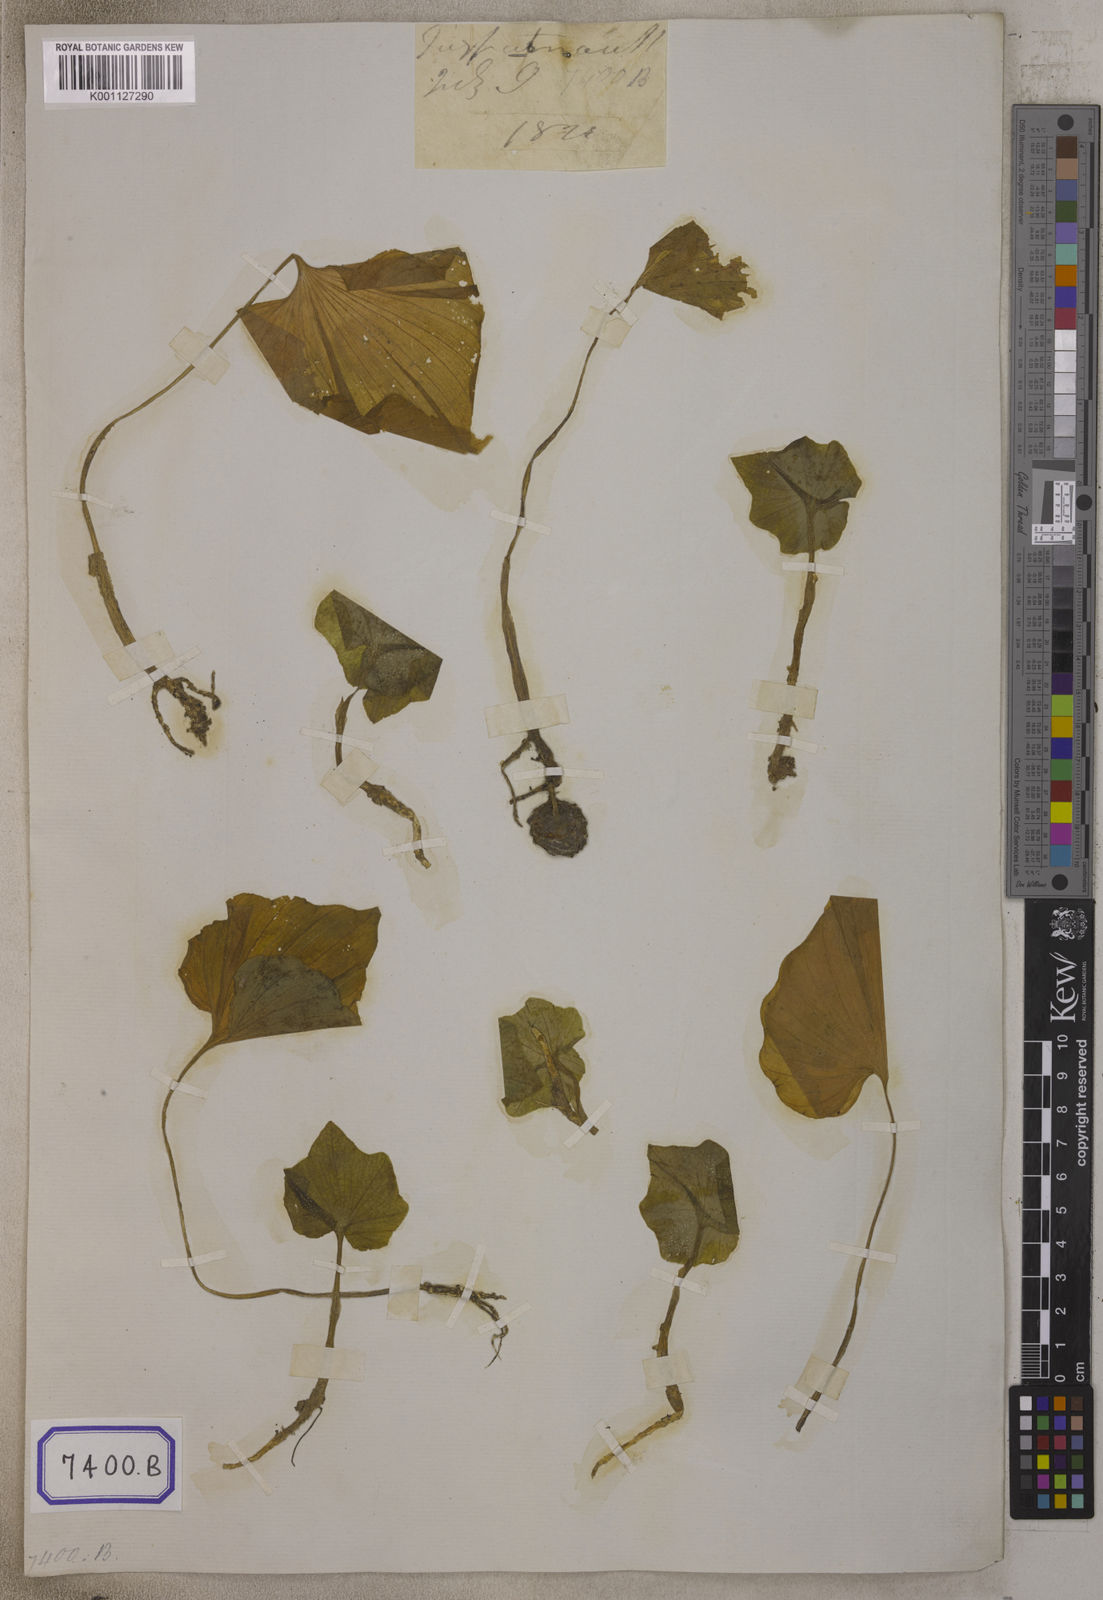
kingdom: Plantae
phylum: Tracheophyta
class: Liliopsida
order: Asparagales
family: Orchidaceae
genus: Nervilia
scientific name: Nervilia concolor
